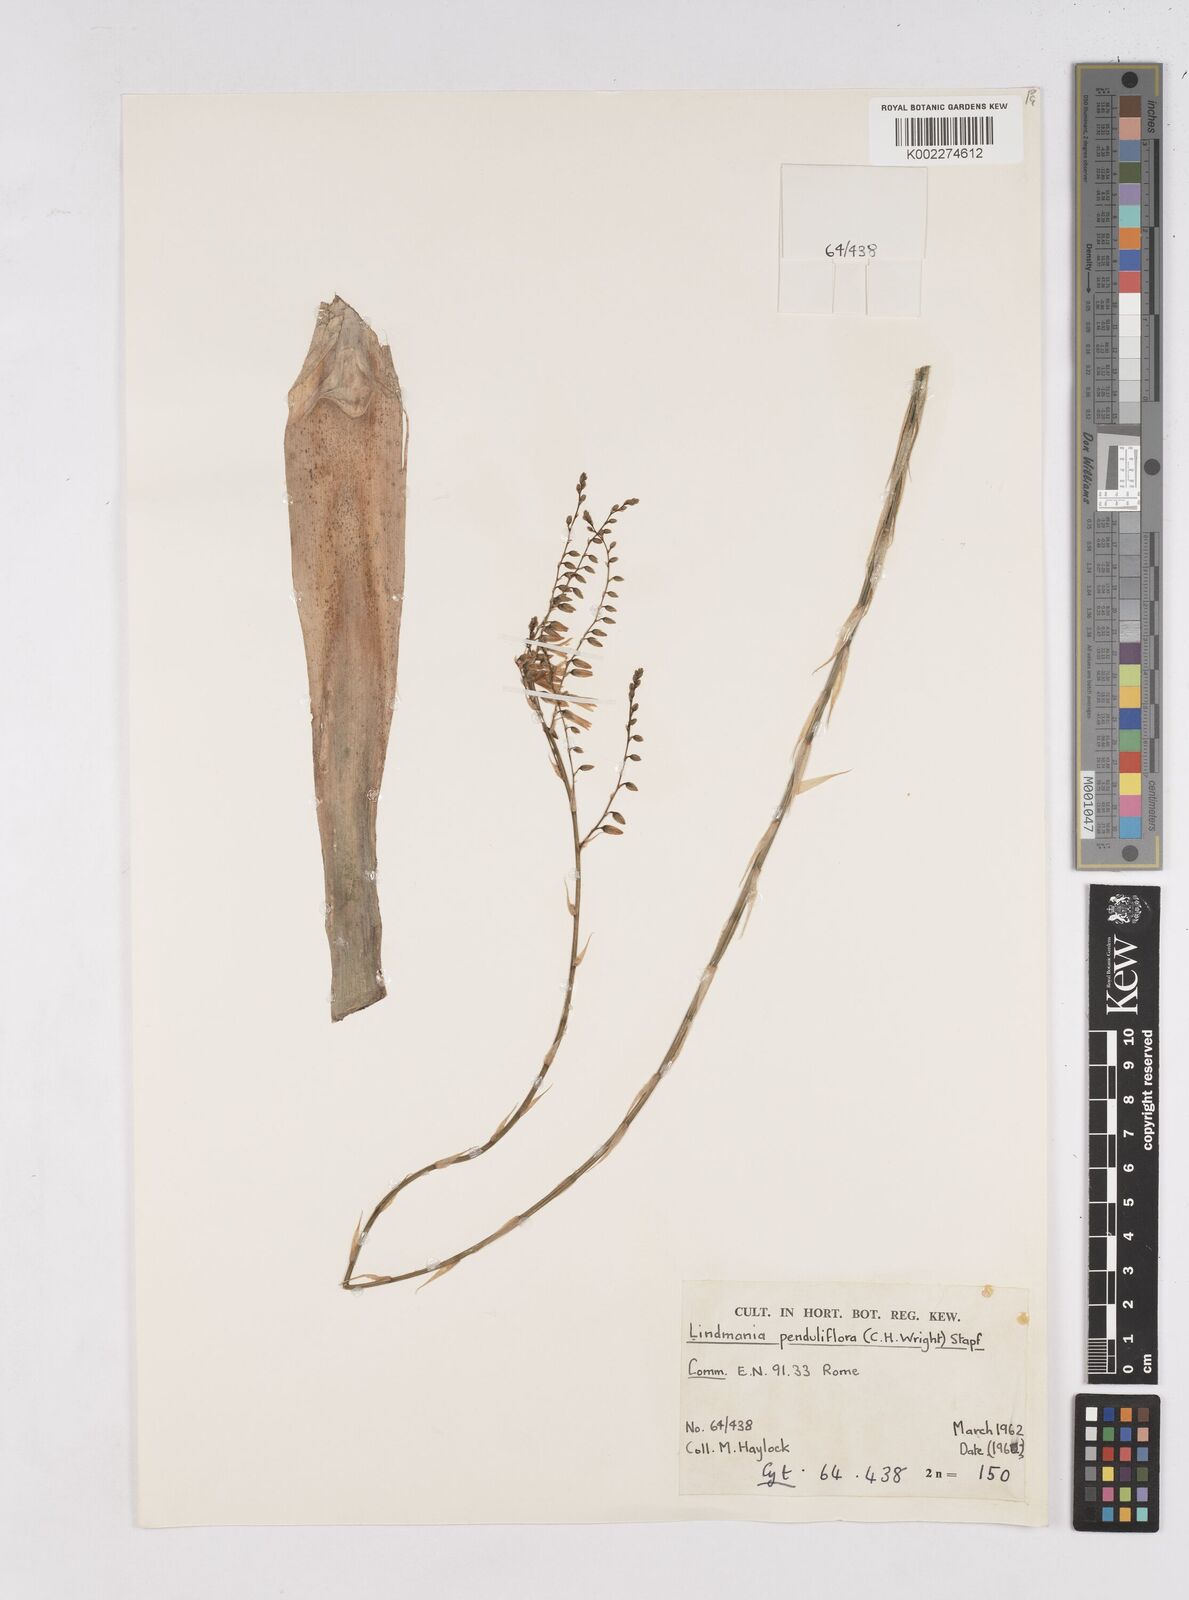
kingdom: Plantae
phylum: Tracheophyta
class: Liliopsida
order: Poales
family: Bromeliaceae
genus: Fosterella
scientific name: Fosterella penduliflora
